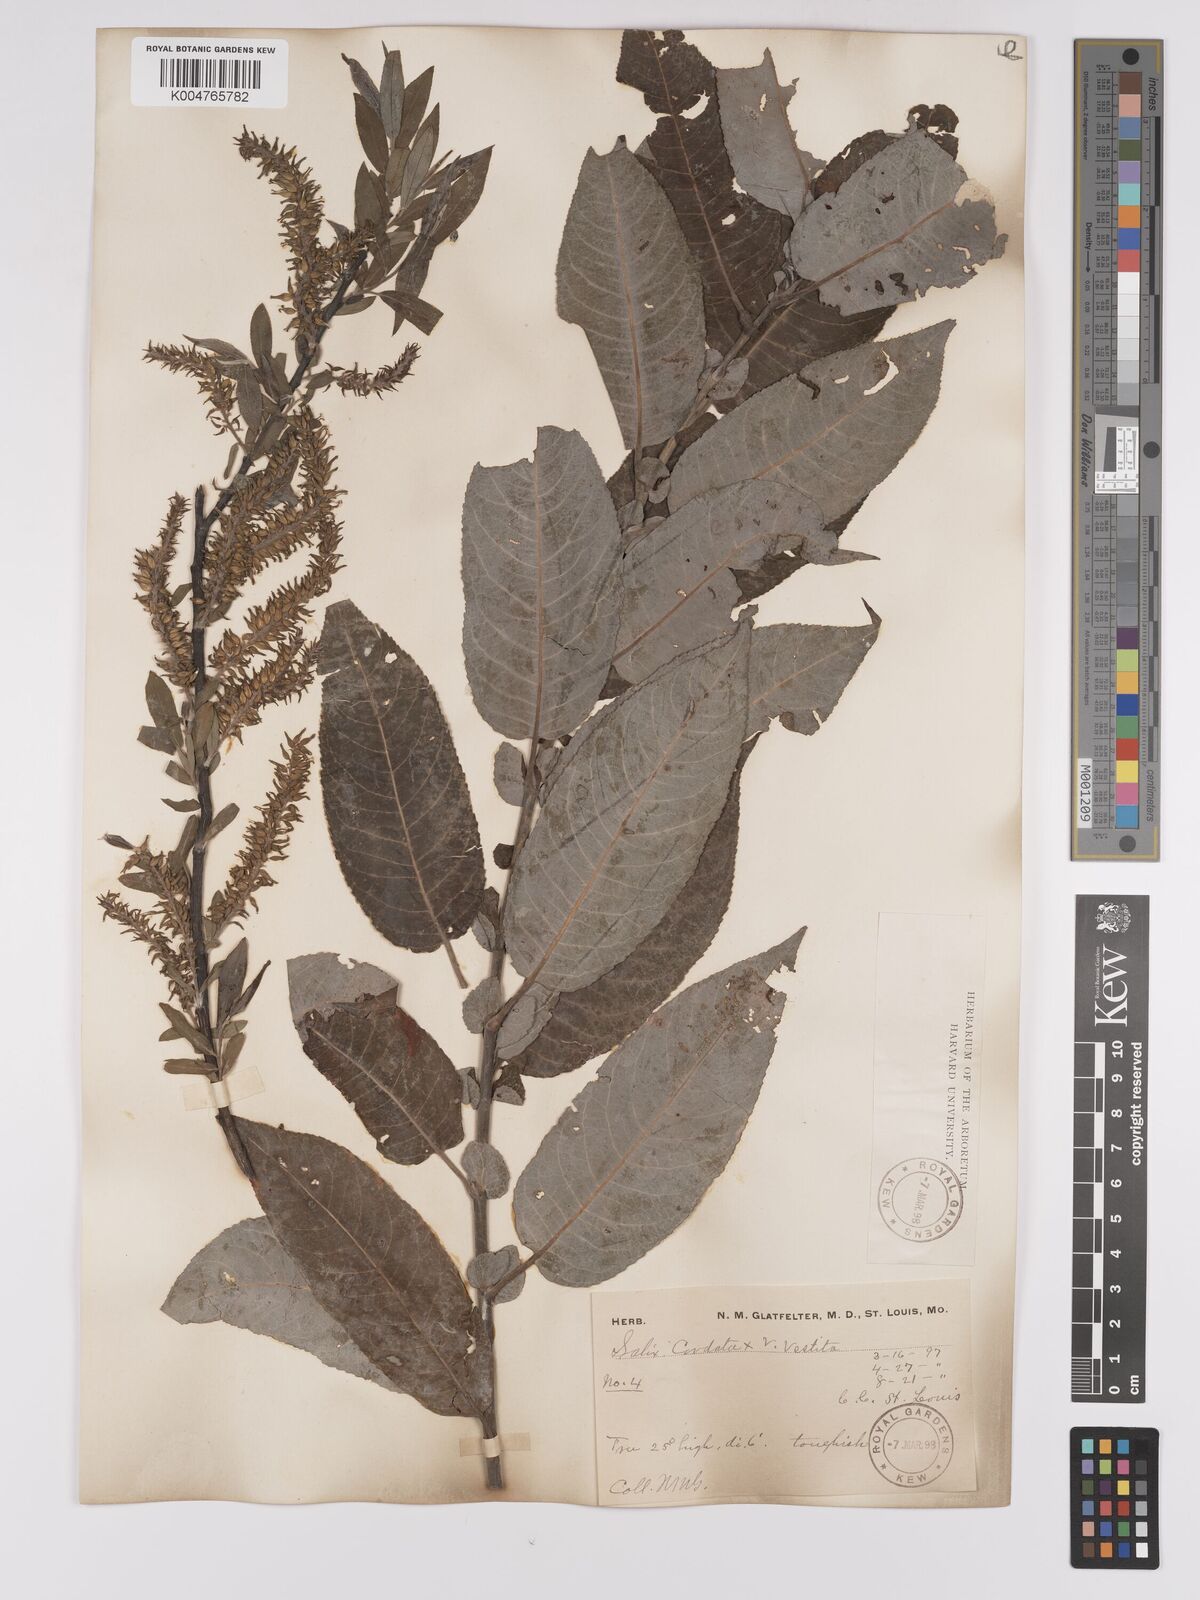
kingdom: Plantae
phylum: Tracheophyta
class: Magnoliopsida
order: Malpighiales
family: Salicaceae
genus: Salix
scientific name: Salix cordata
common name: Heart-leaf willow
